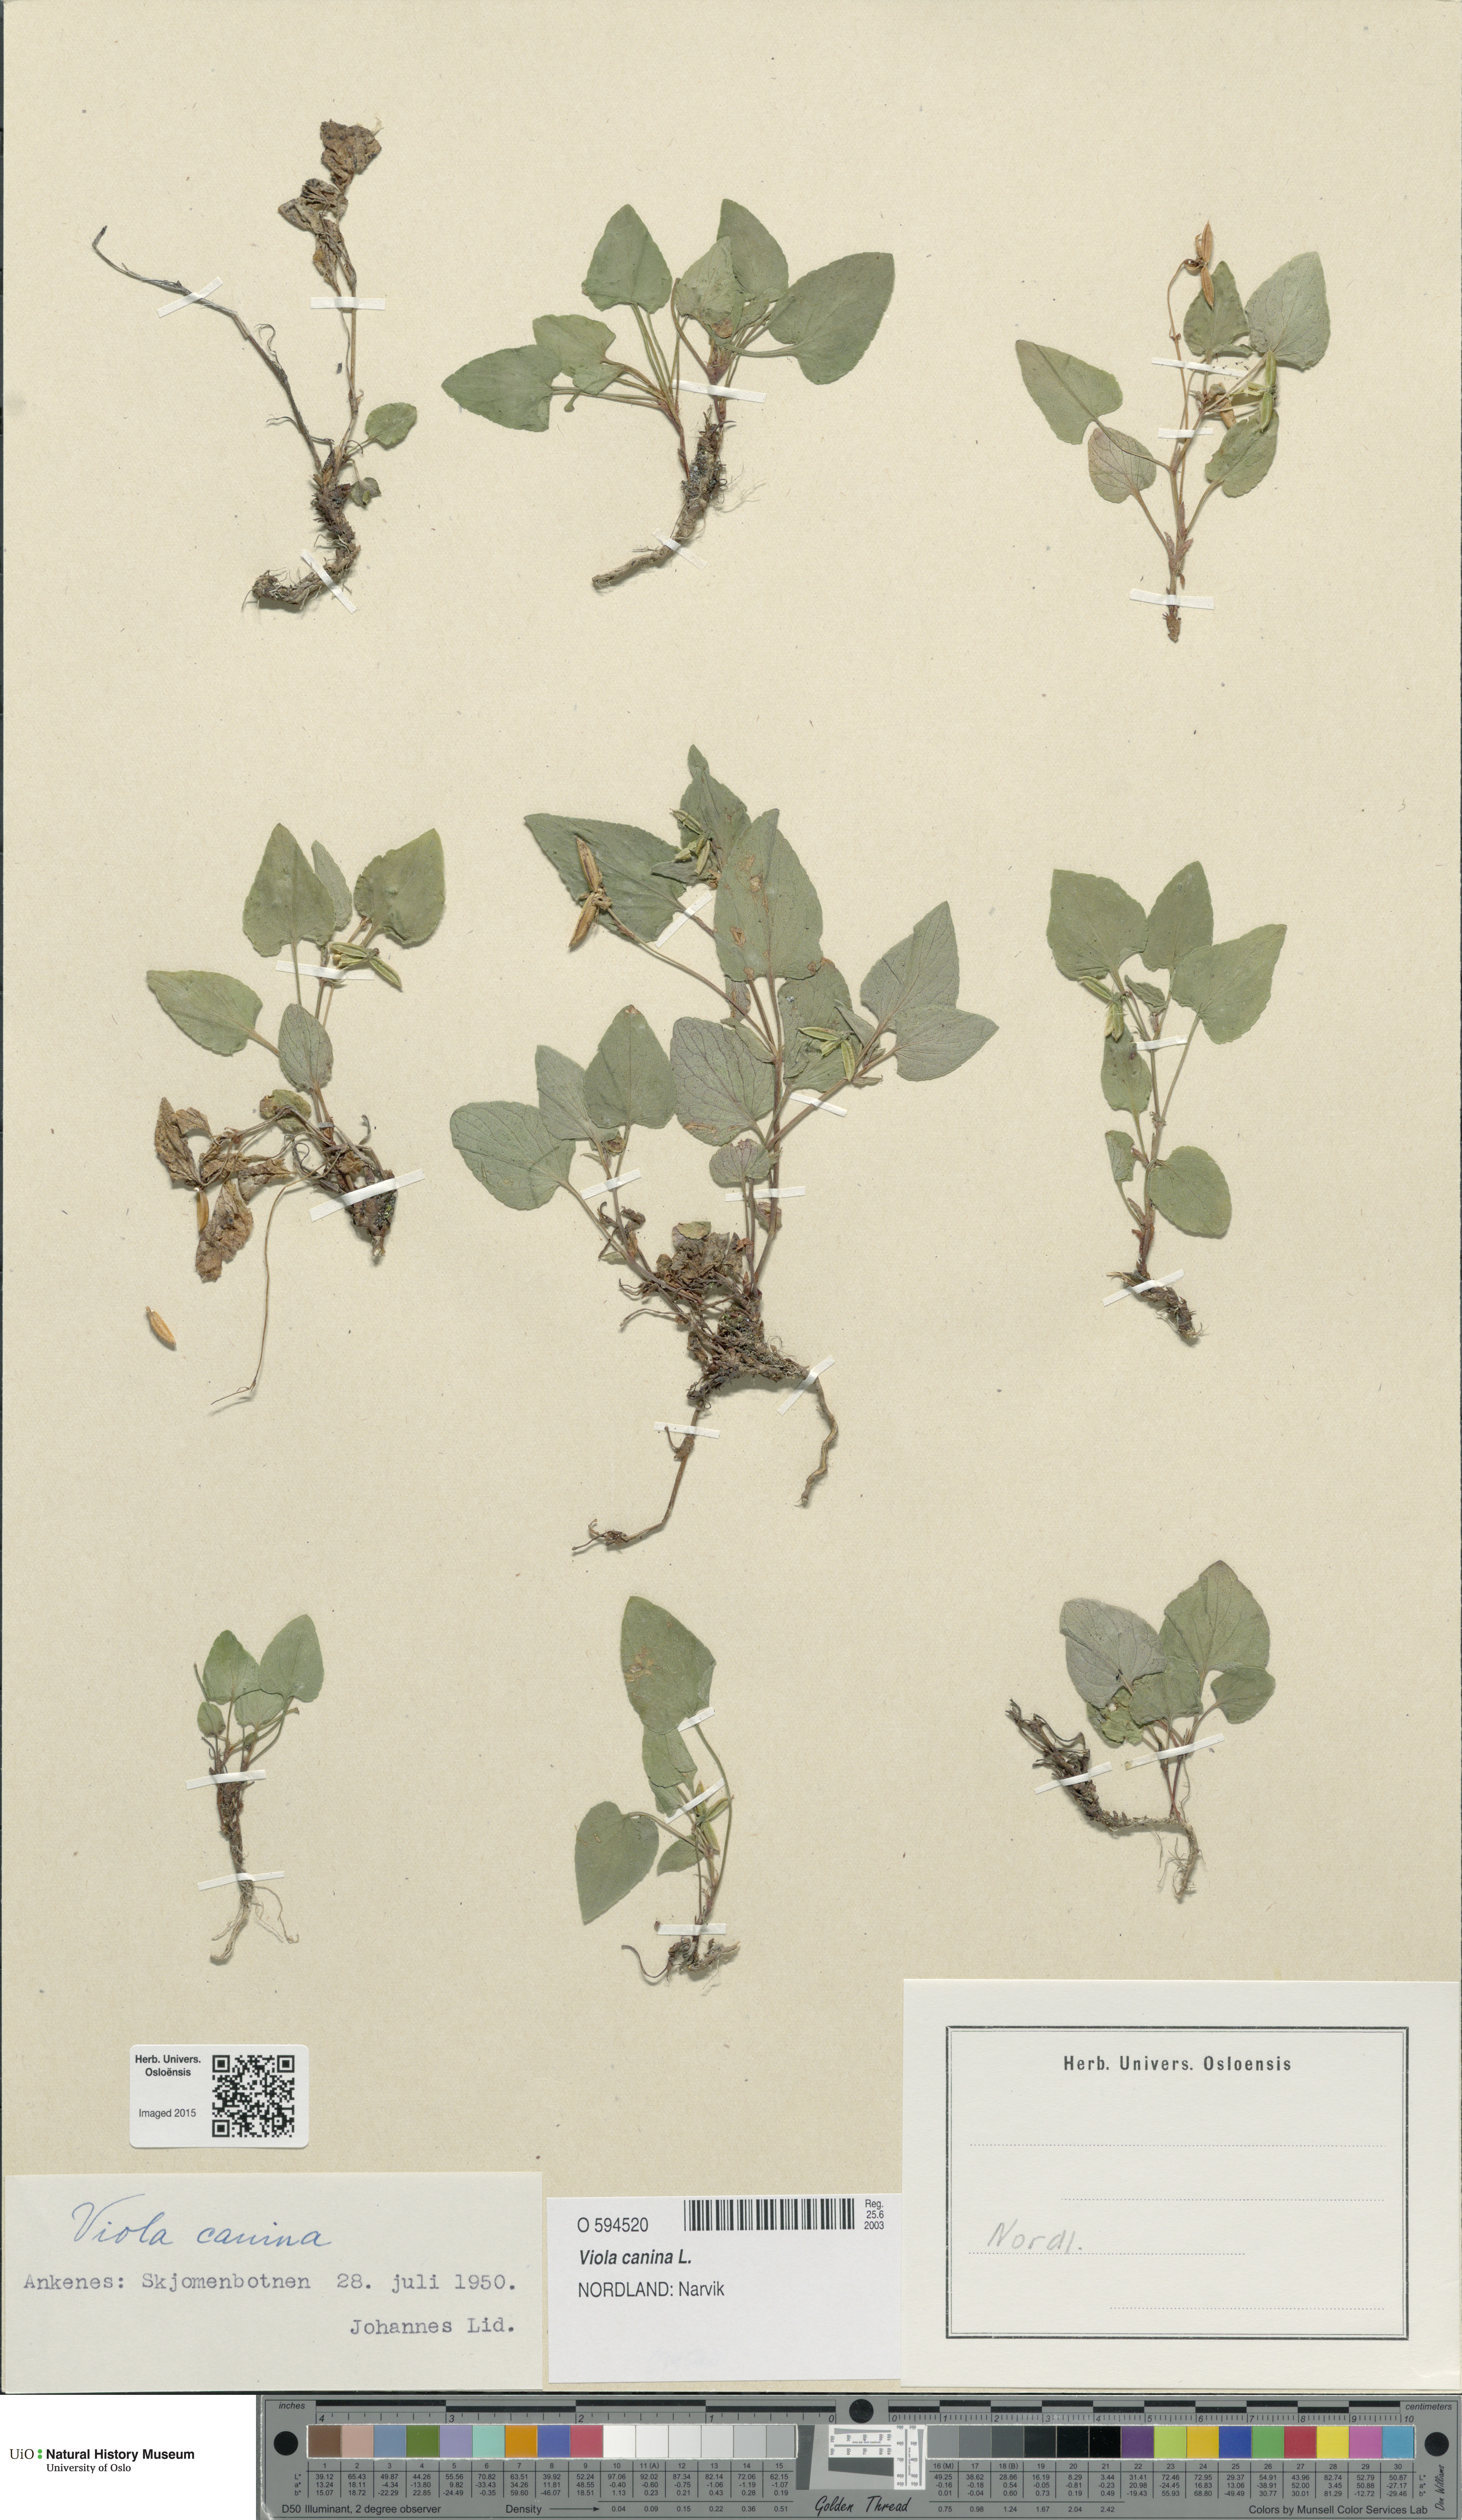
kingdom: Plantae
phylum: Tracheophyta
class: Magnoliopsida
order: Malpighiales
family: Violaceae
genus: Viola
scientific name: Viola canina
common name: Heath dog-violet
